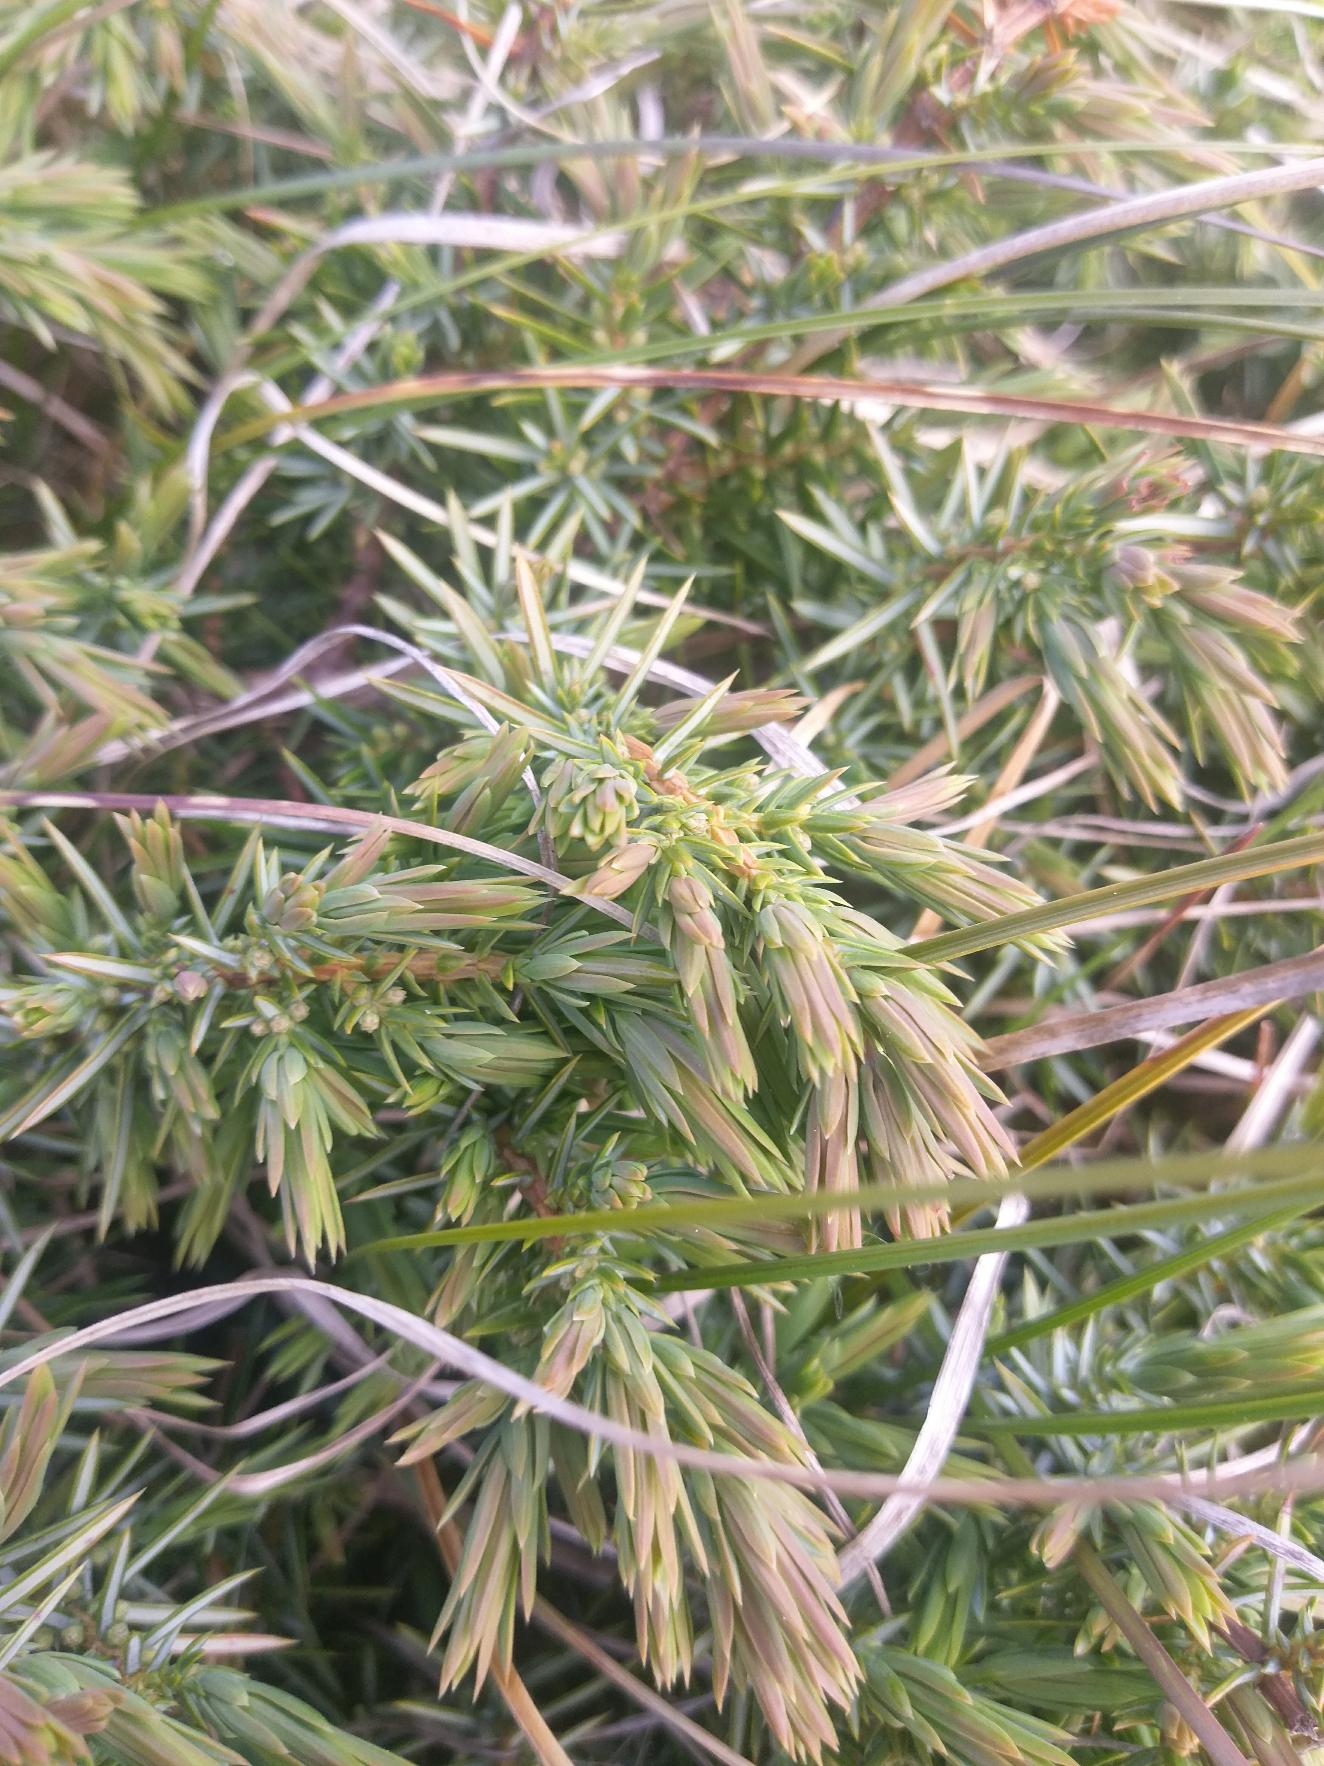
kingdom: Plantae
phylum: Tracheophyta
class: Pinopsida
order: Pinales
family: Cupressaceae
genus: Juniperus
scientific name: Juniperus communis
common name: Almindelig ene
